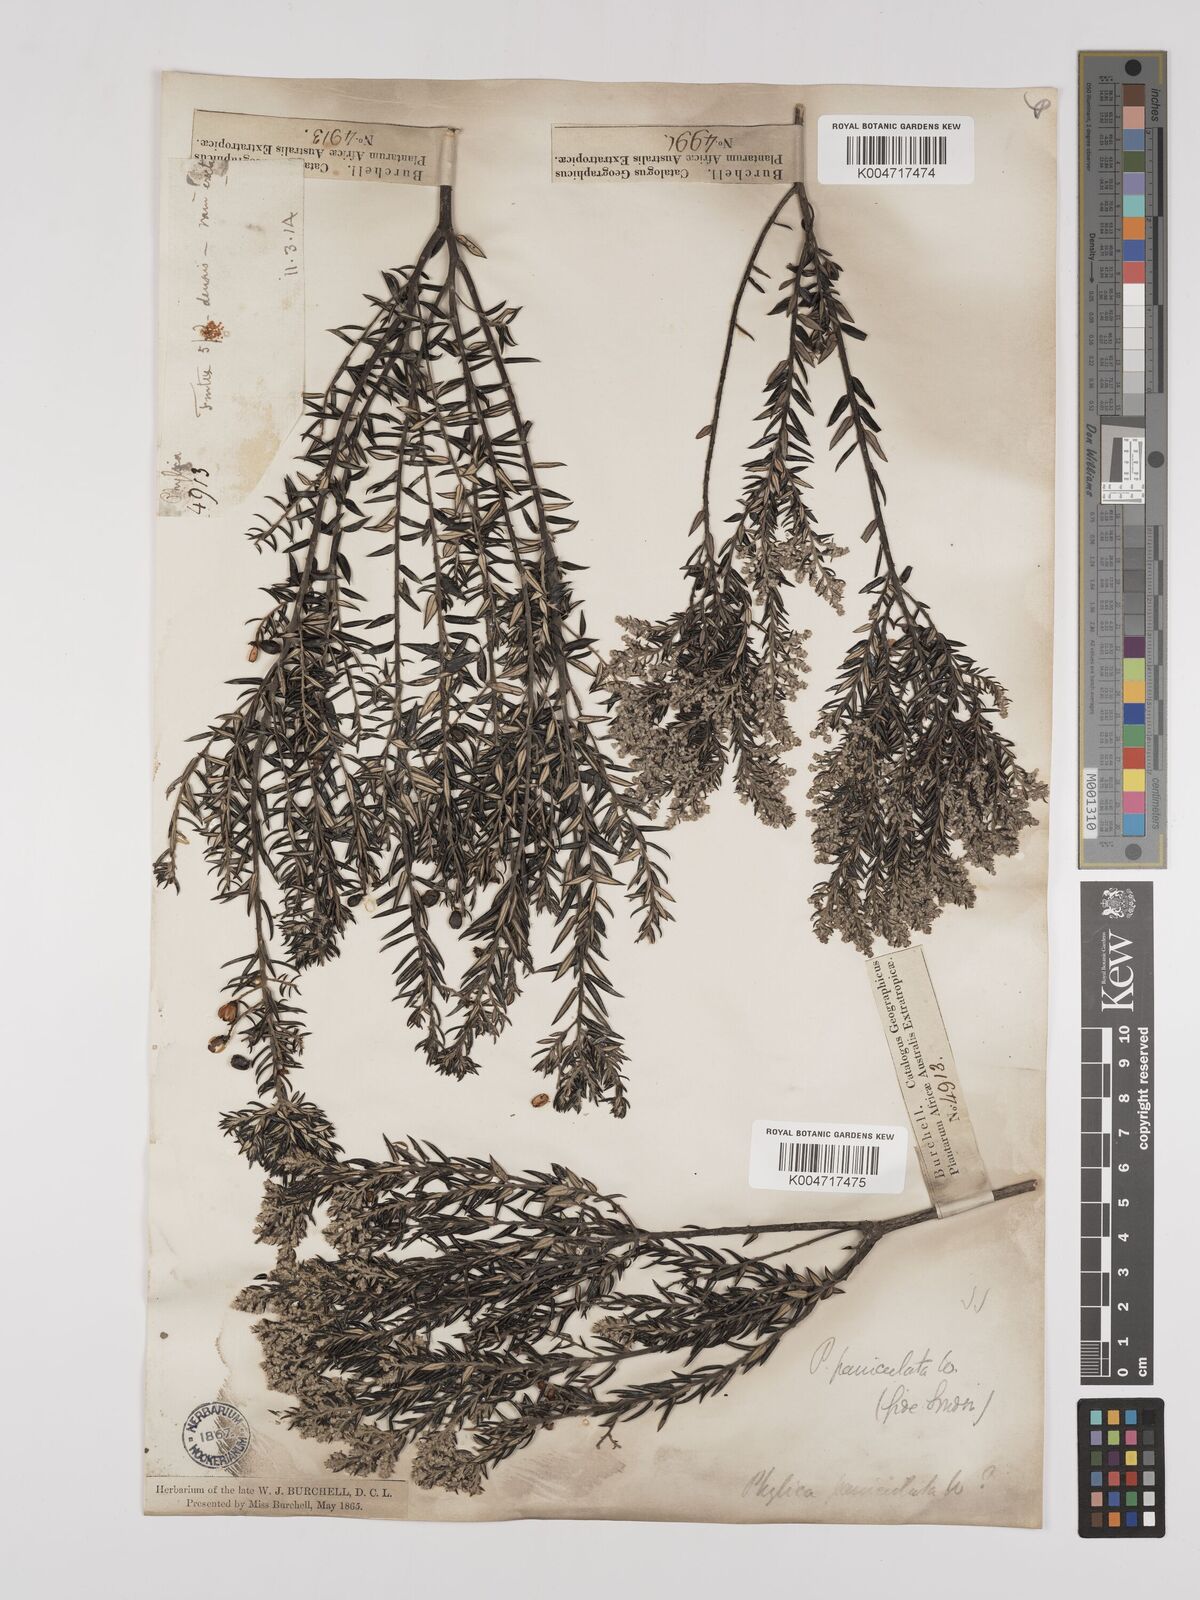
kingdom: Plantae
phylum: Tracheophyta
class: Magnoliopsida
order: Rosales
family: Rhamnaceae
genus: Phylica
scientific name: Phylica paniculata
